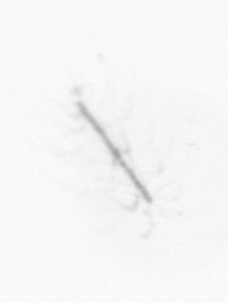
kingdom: Chromista
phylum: Ochrophyta
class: Bacillariophyceae
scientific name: Bacillariophyceae
